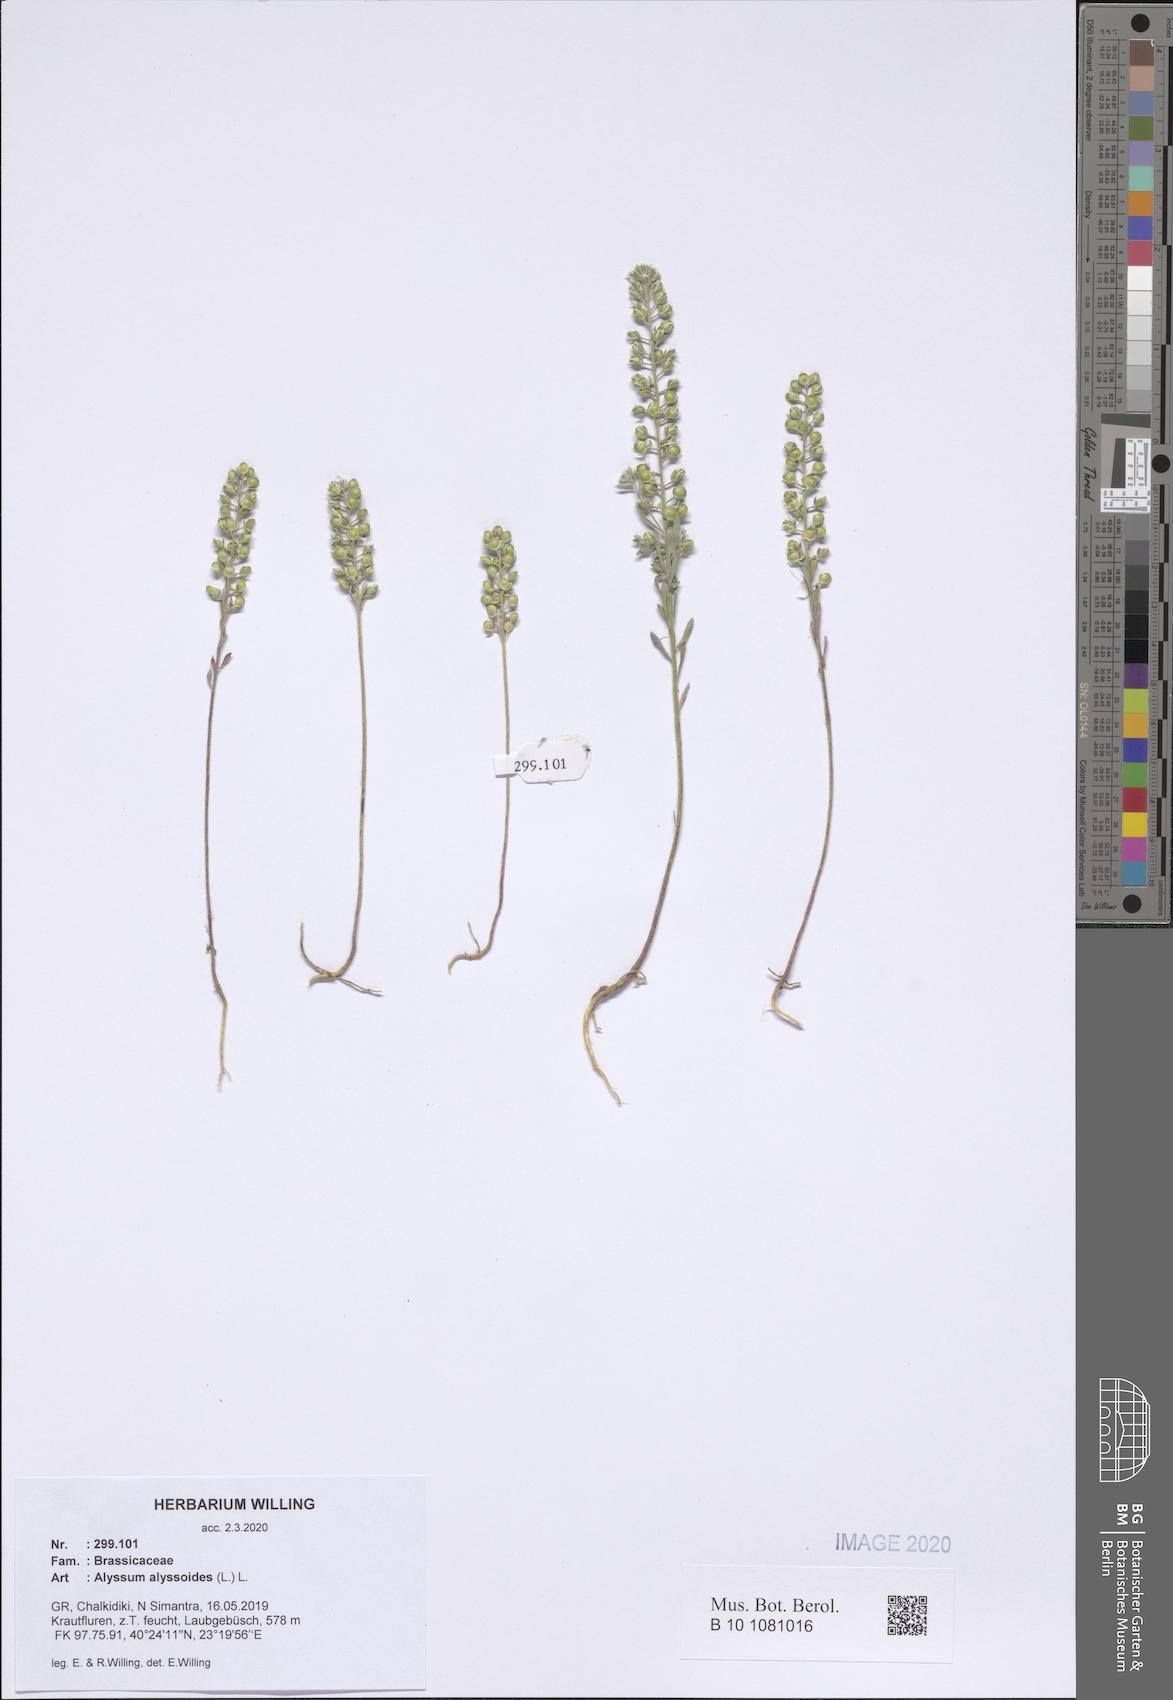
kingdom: Plantae
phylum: Tracheophyta
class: Magnoliopsida
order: Brassicales
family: Brassicaceae
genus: Alyssum
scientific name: Alyssum alyssoides
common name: Small alison
